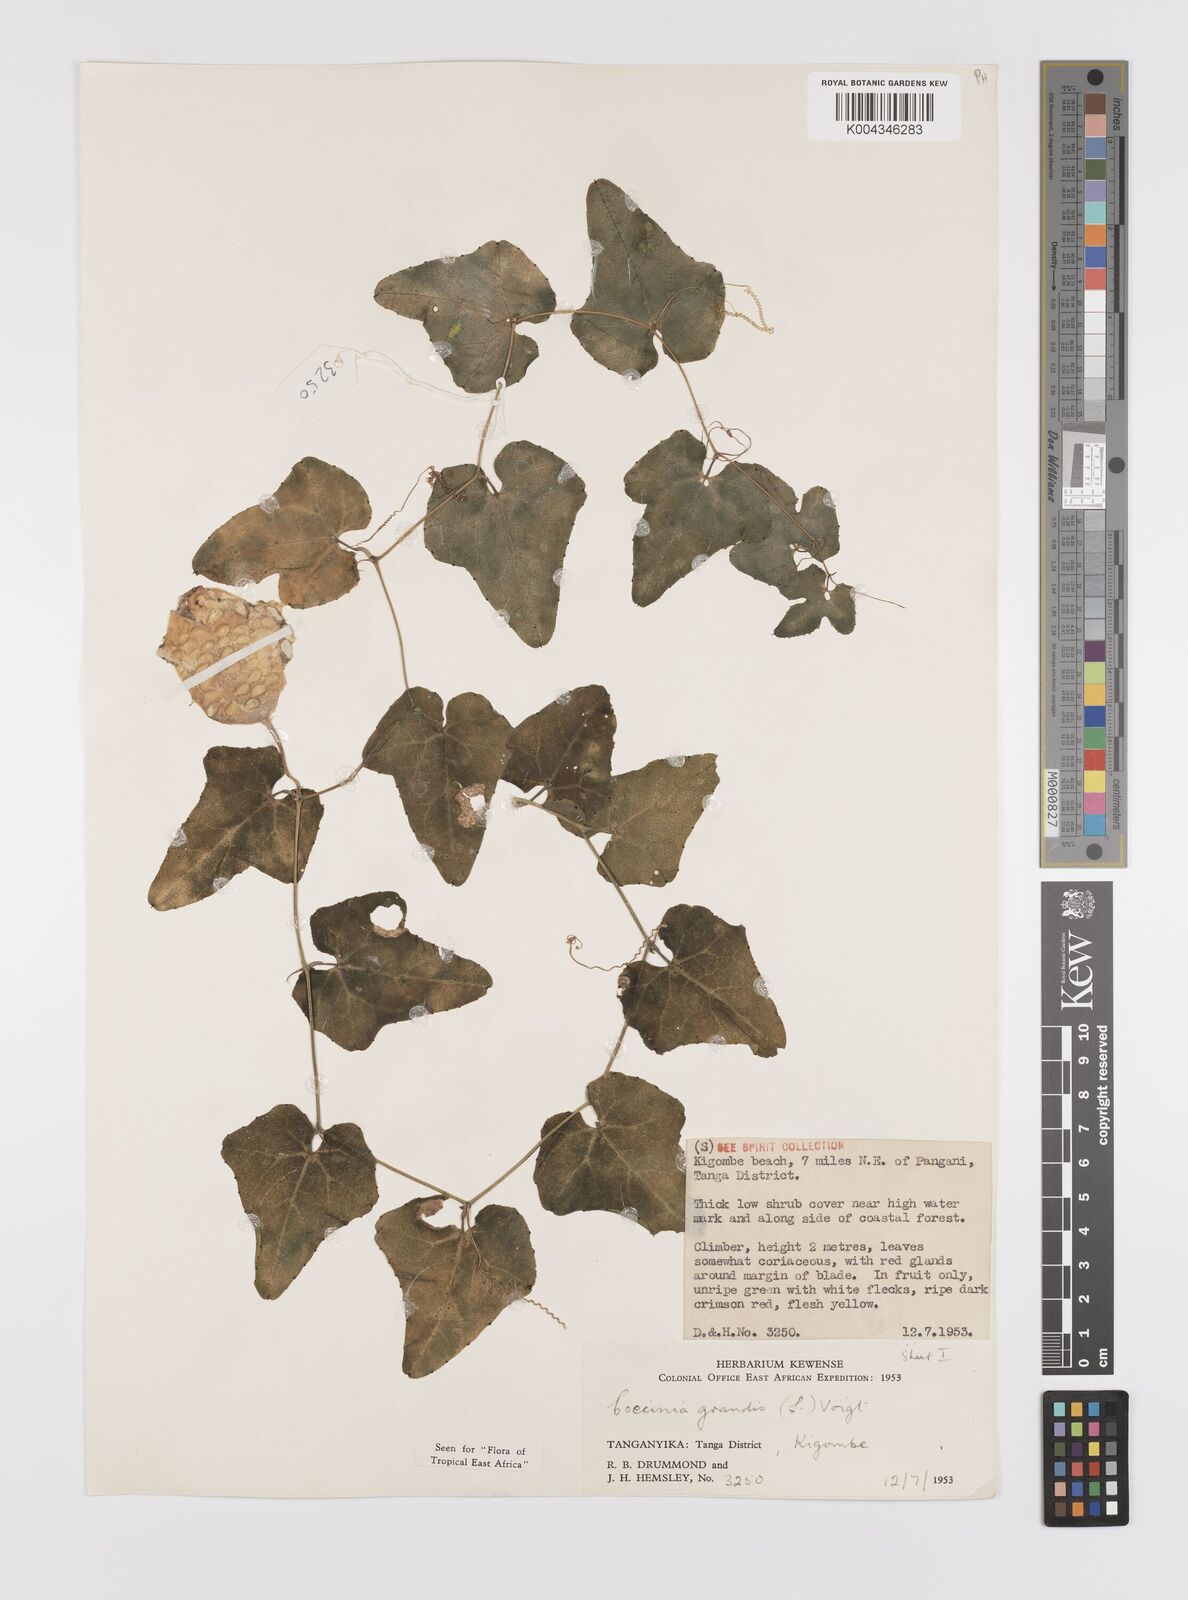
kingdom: Plantae
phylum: Tracheophyta
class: Magnoliopsida
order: Cucurbitales
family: Cucurbitaceae
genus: Coccinia
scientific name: Coccinia grandis
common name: Ivy gourd
